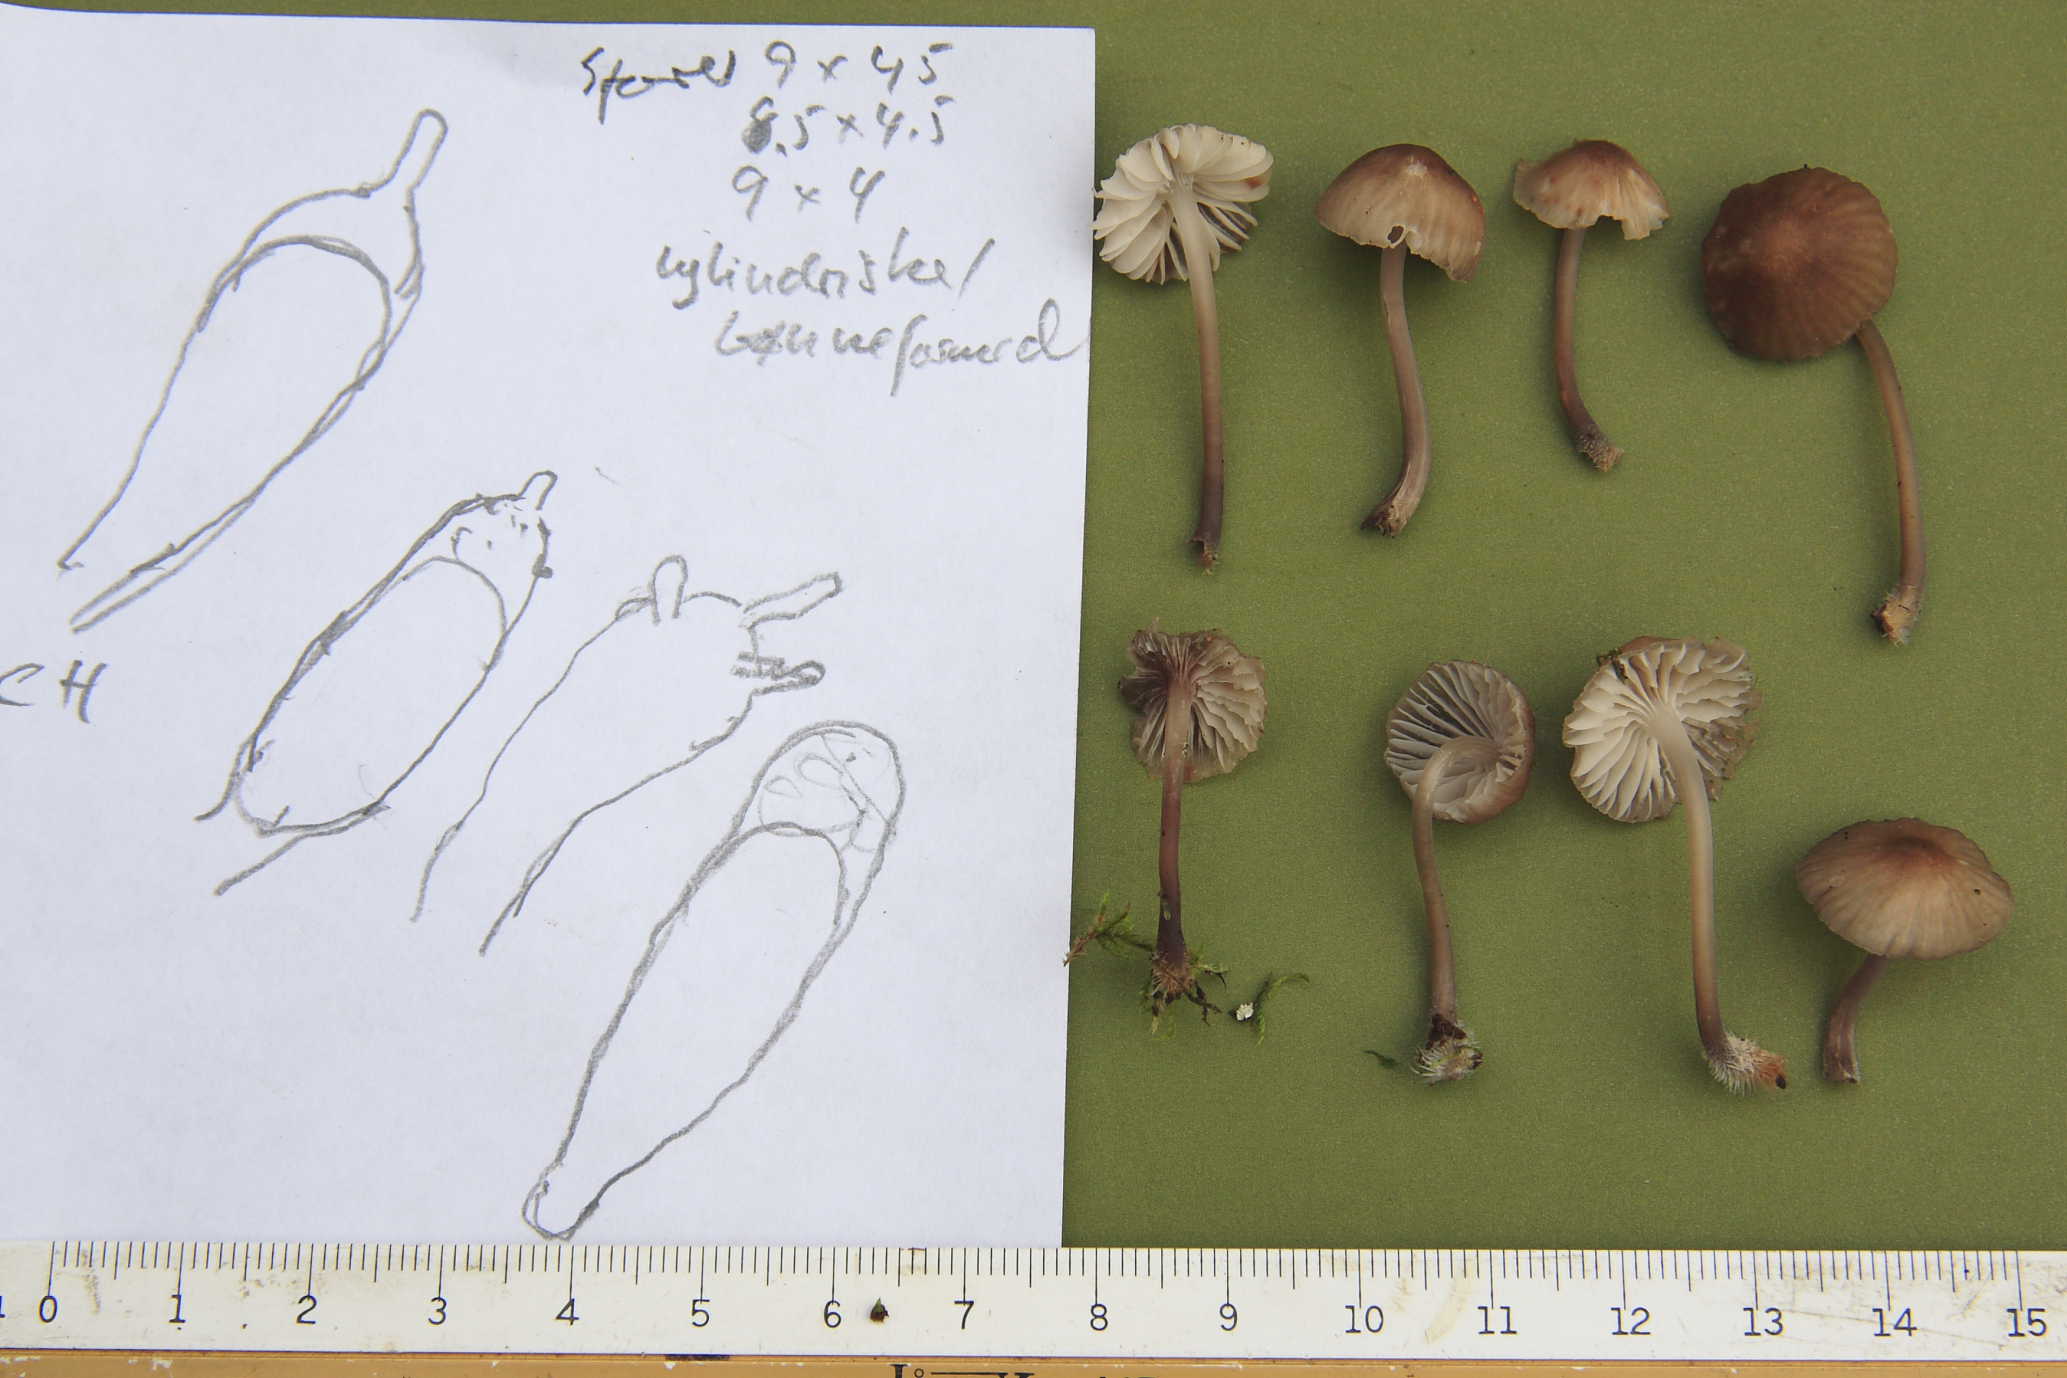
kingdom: Fungi
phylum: Basidiomycota
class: Agaricomycetes
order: Agaricales
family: Mycenaceae
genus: Mycena
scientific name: Mycena abramsii
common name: sommer-huesvamp
